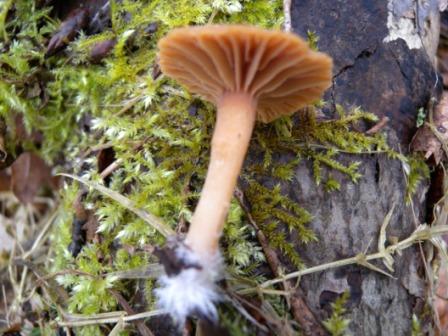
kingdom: Fungi
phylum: Basidiomycota
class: Agaricomycetes
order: Agaricales
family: Tubariaceae
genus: Tubaria
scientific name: Tubaria furfuracea
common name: kliddet fnughat
